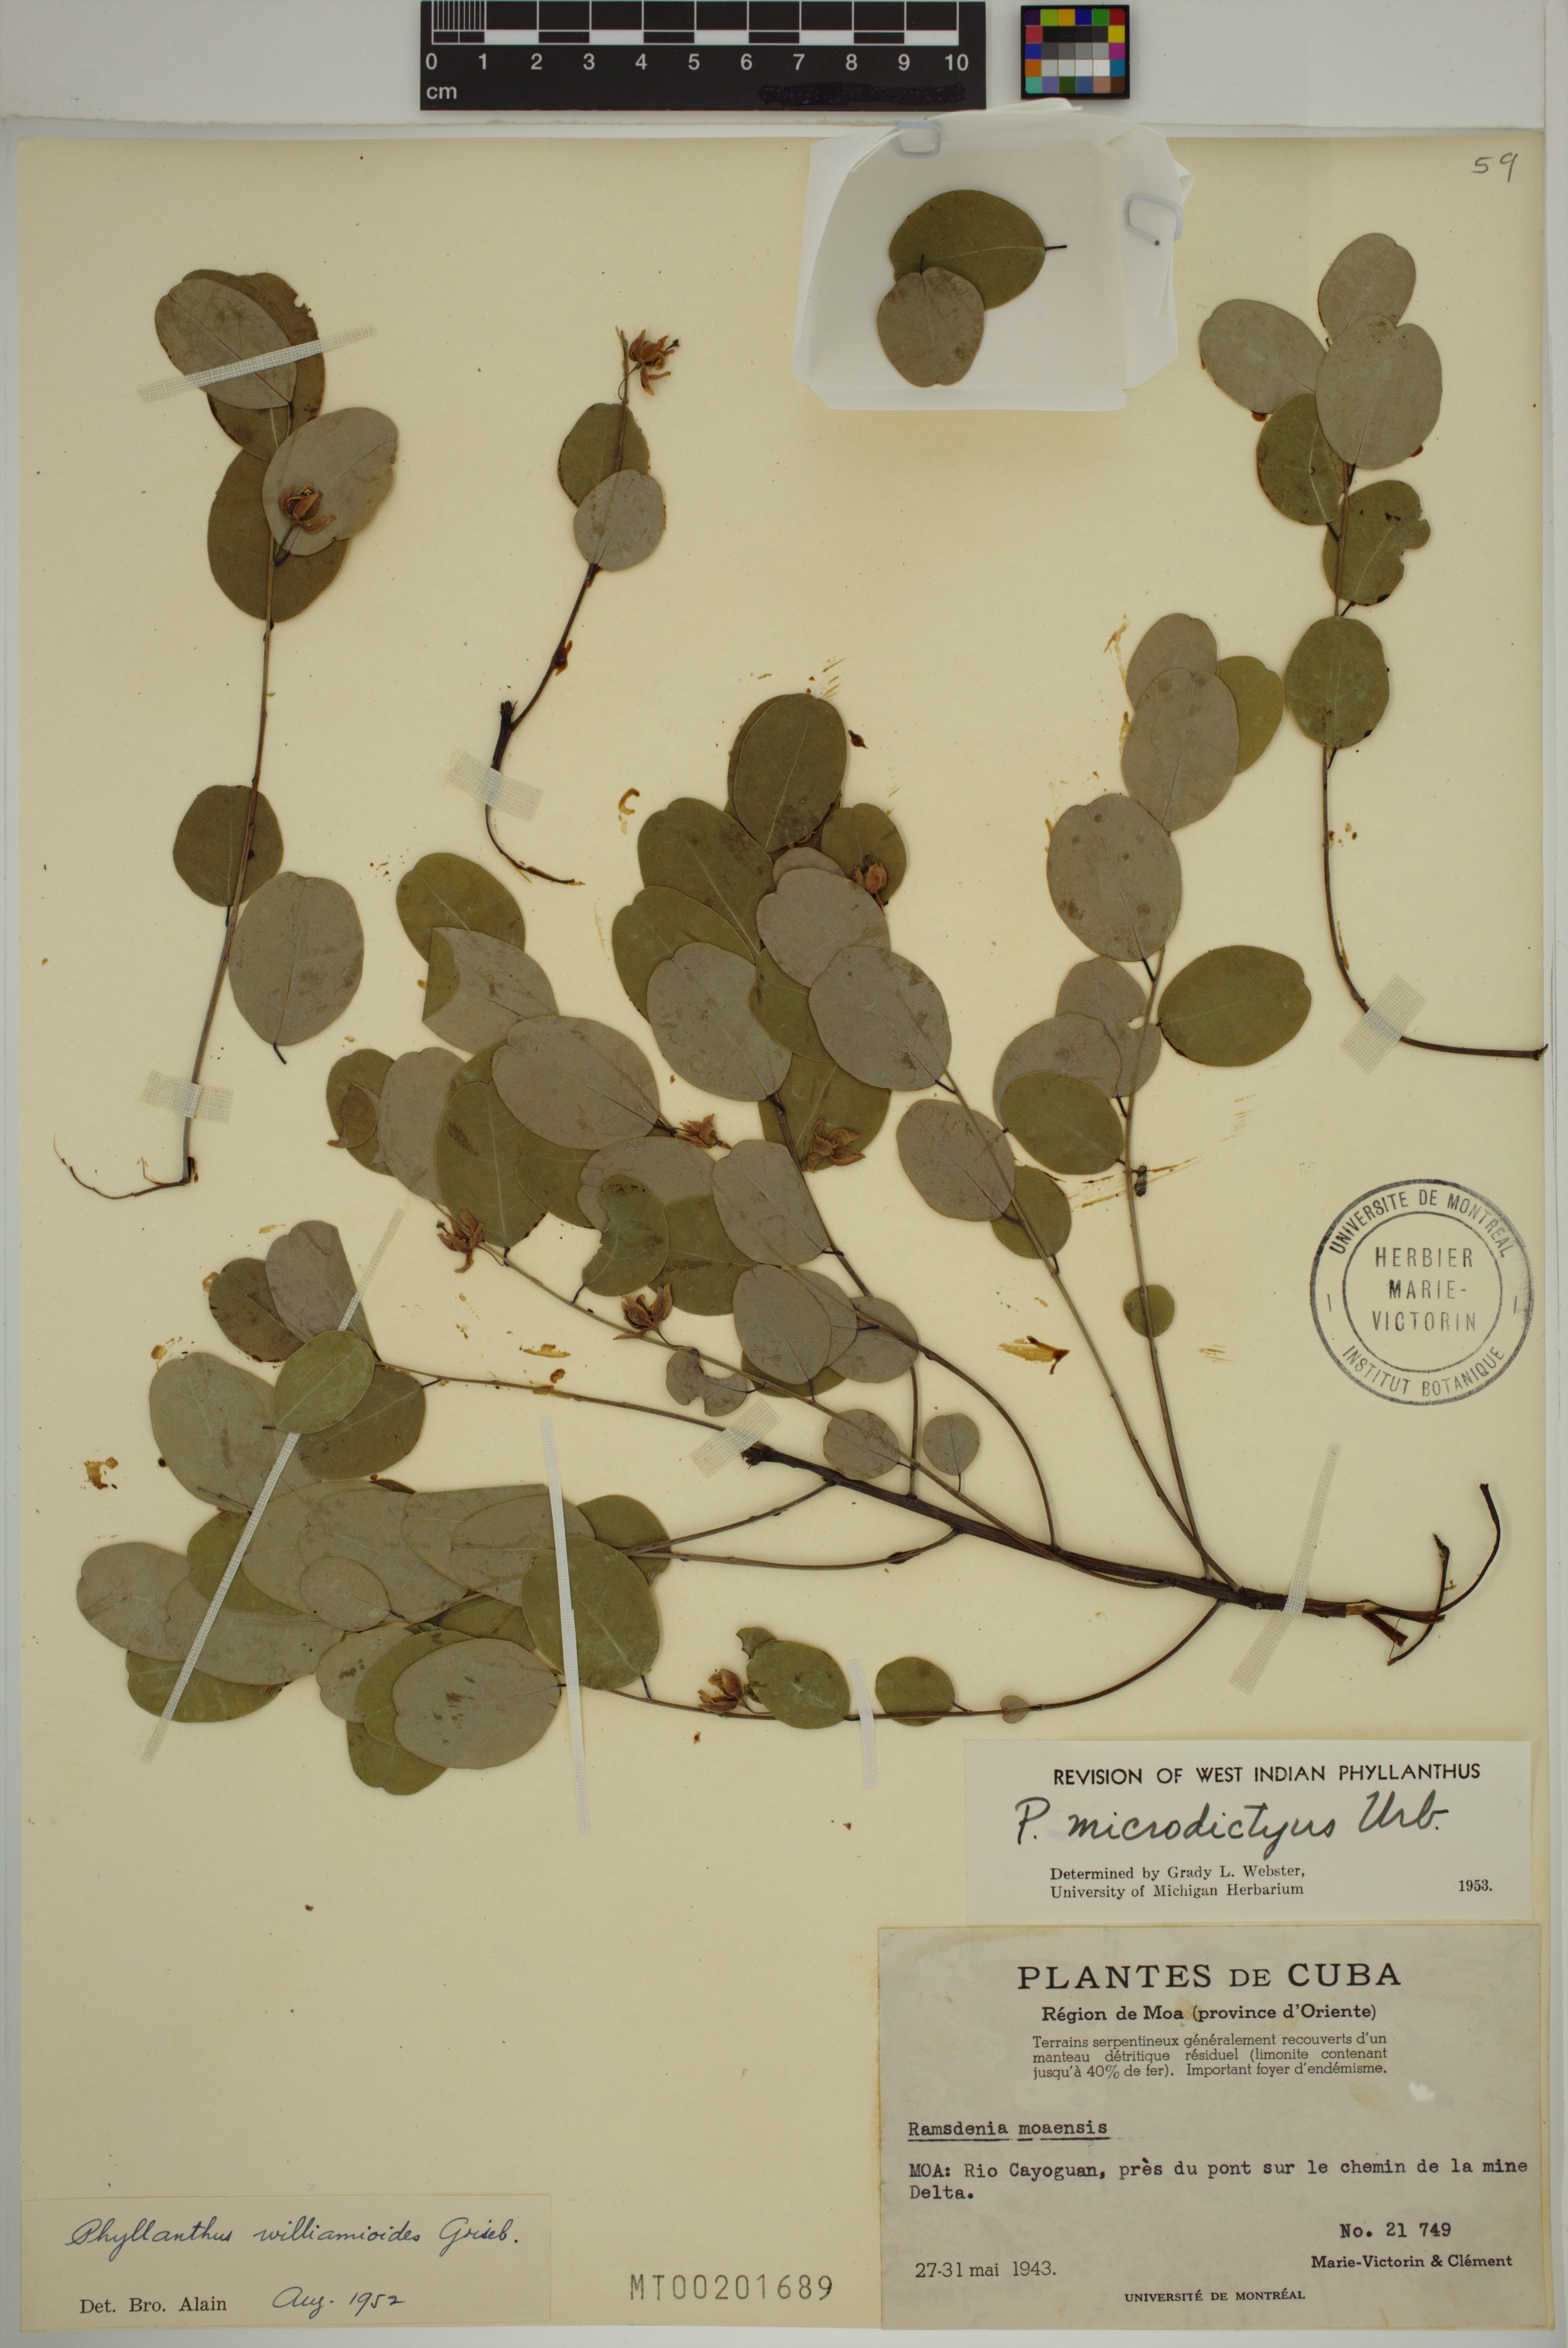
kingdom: Plantae
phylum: Tracheophyta
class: Magnoliopsida
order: Malpighiales
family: Phyllanthaceae
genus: Phyllanthus
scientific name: Phyllanthus microdictyus
